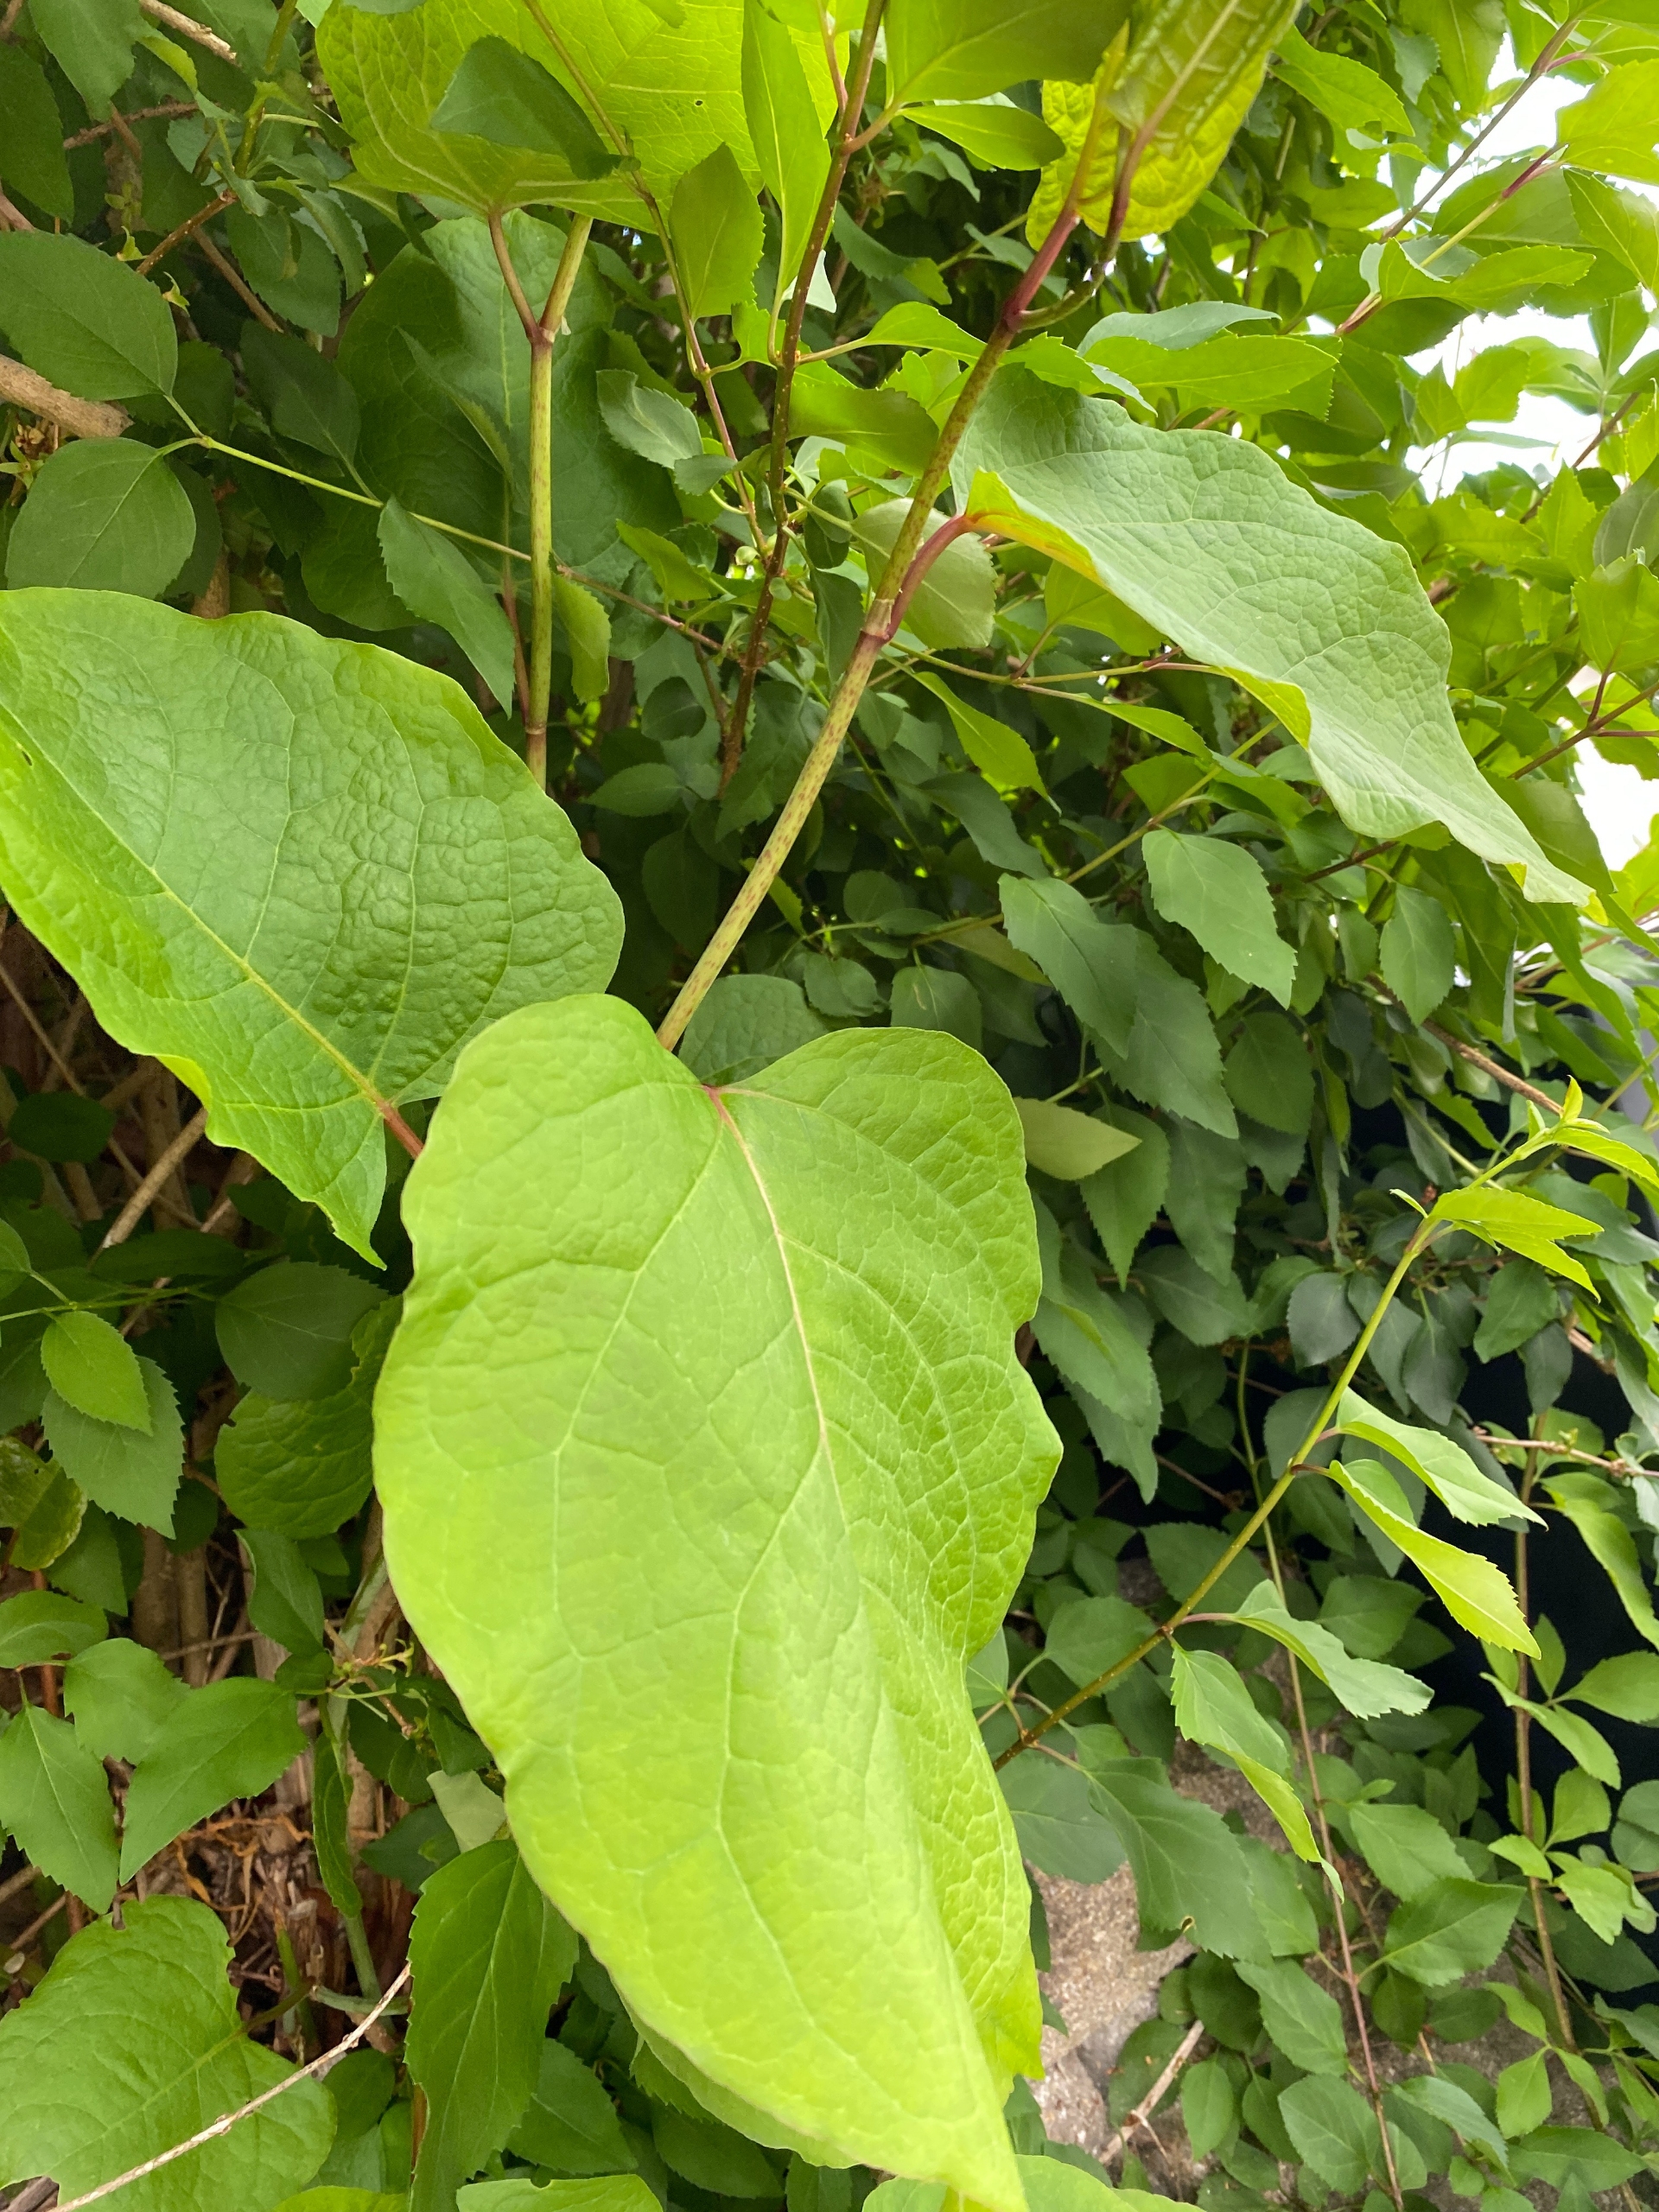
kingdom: Plantae
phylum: Tracheophyta
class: Magnoliopsida
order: Caryophyllales
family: Polygonaceae
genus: Reynoutria
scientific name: Reynoutria bohemica
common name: Hybrid-pileurt
